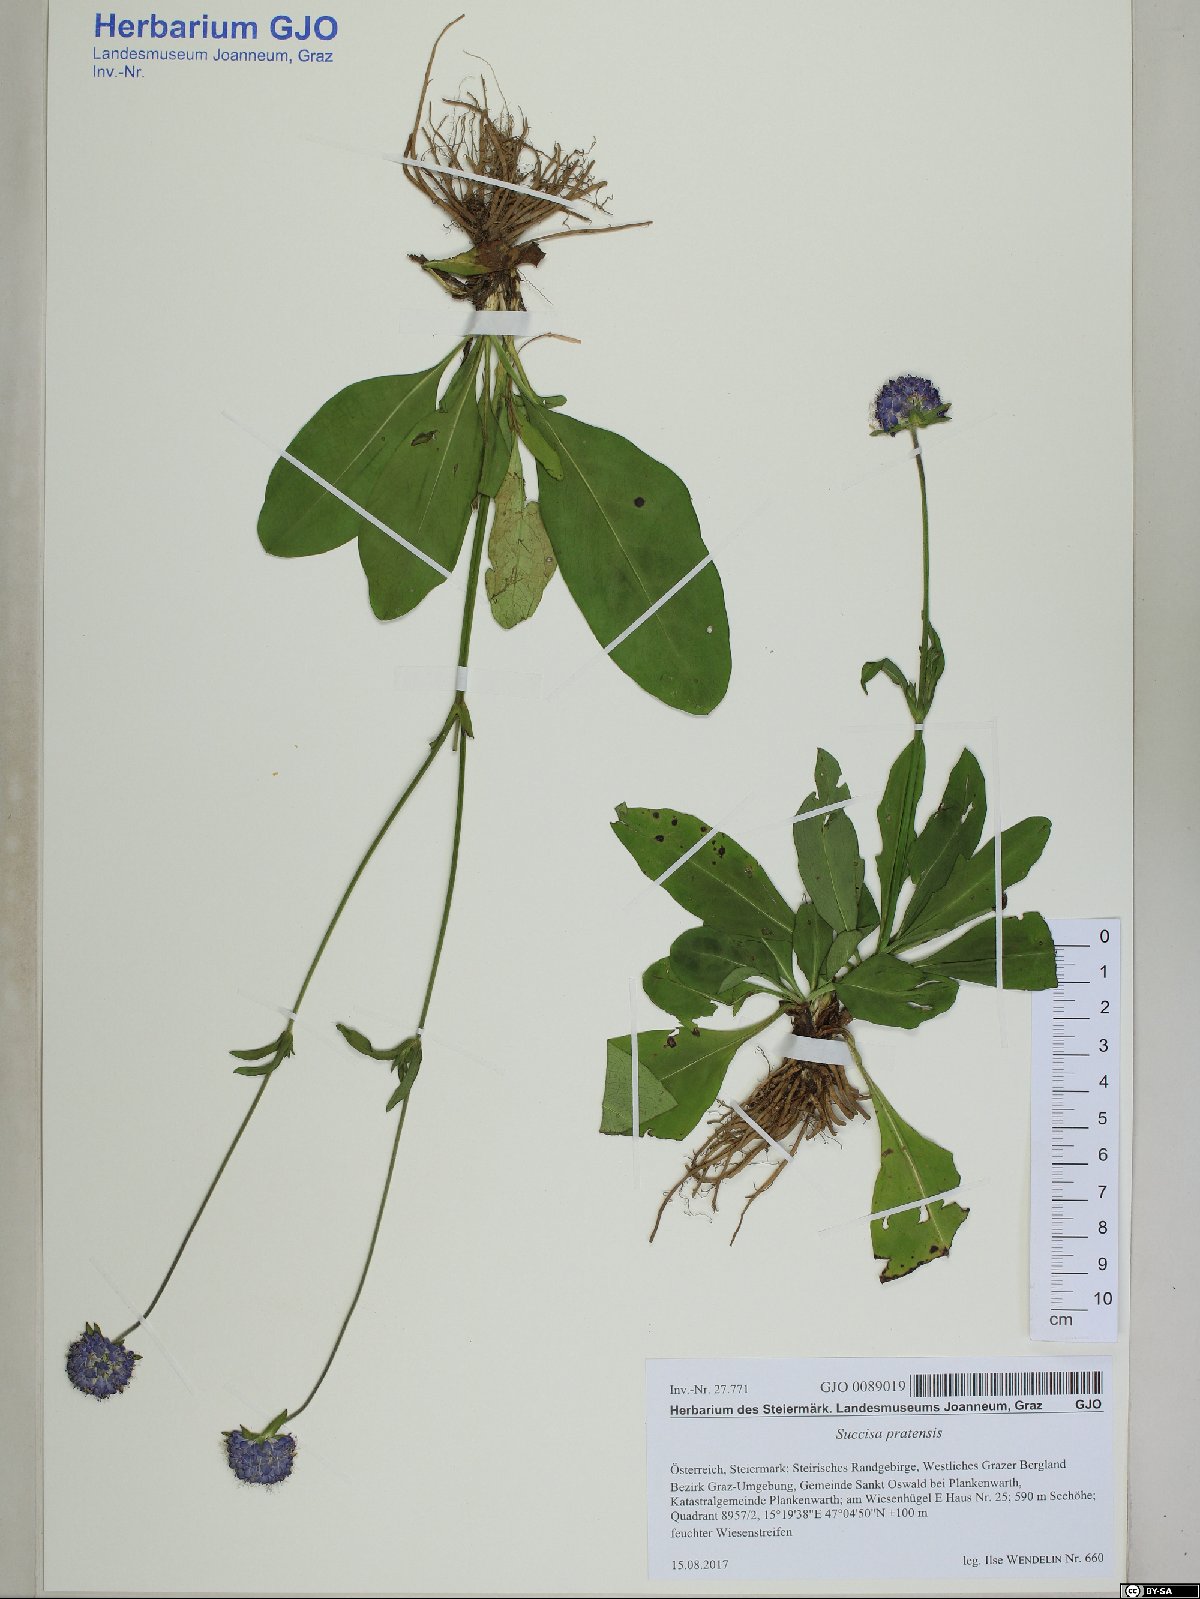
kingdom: Plantae
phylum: Tracheophyta
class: Magnoliopsida
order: Dipsacales
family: Caprifoliaceae
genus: Succisa
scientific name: Succisa pratensis
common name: Devil's-bit
